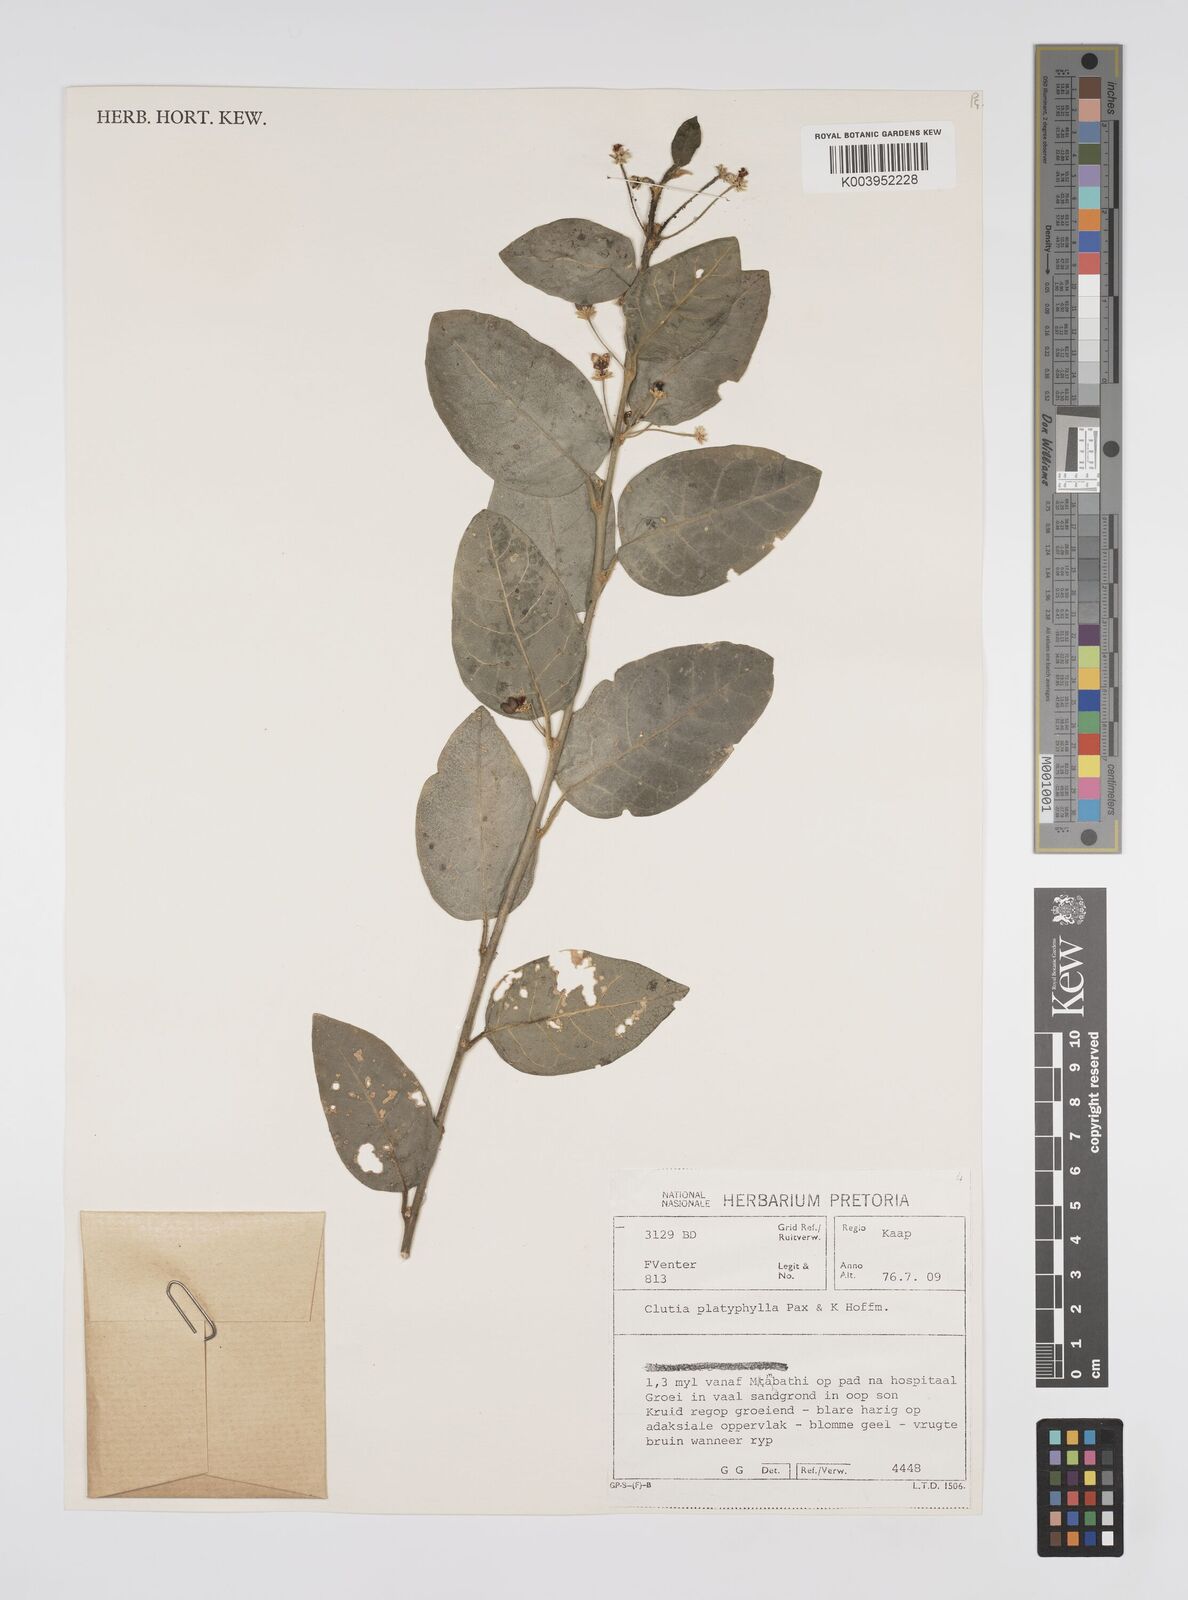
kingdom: Plantae
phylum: Tracheophyta
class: Magnoliopsida
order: Malpighiales
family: Peraceae
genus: Clutia
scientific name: Clutia platyphylla
